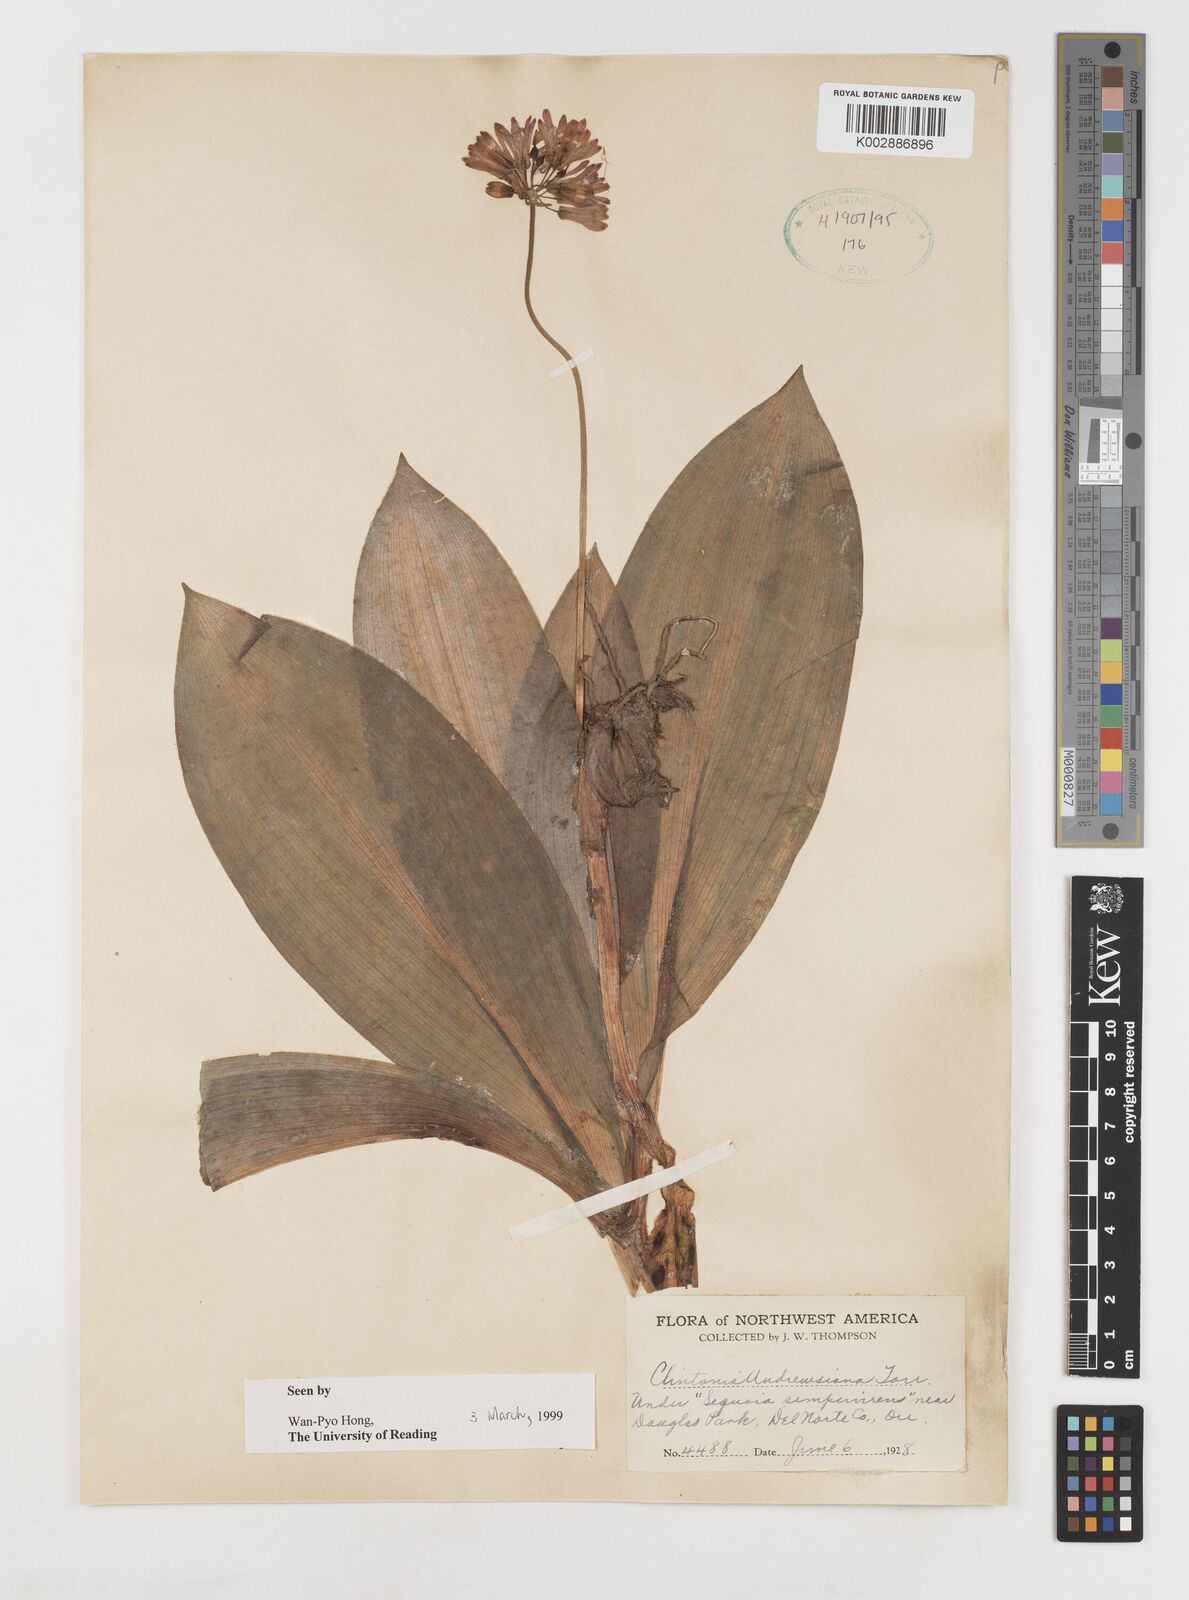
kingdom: Plantae
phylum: Tracheophyta
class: Liliopsida
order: Liliales
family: Liliaceae
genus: Clintonia
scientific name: Clintonia andrewsiana
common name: Red clintonia
